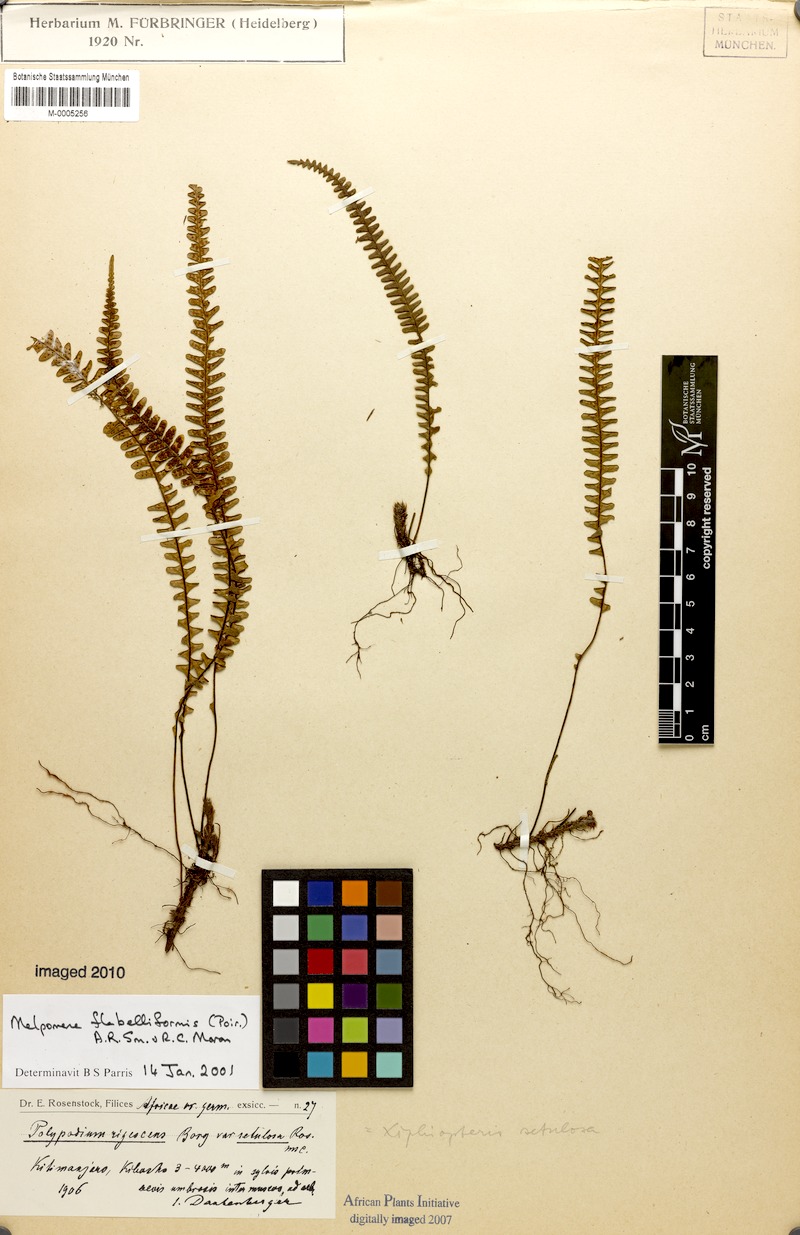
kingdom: Plantae
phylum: Tracheophyta
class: Polypodiopsida
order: Polypodiales
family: Polypodiaceae
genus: Melpomene
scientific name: Melpomene flabelliformis
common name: Fanleaf dwarf polypody
